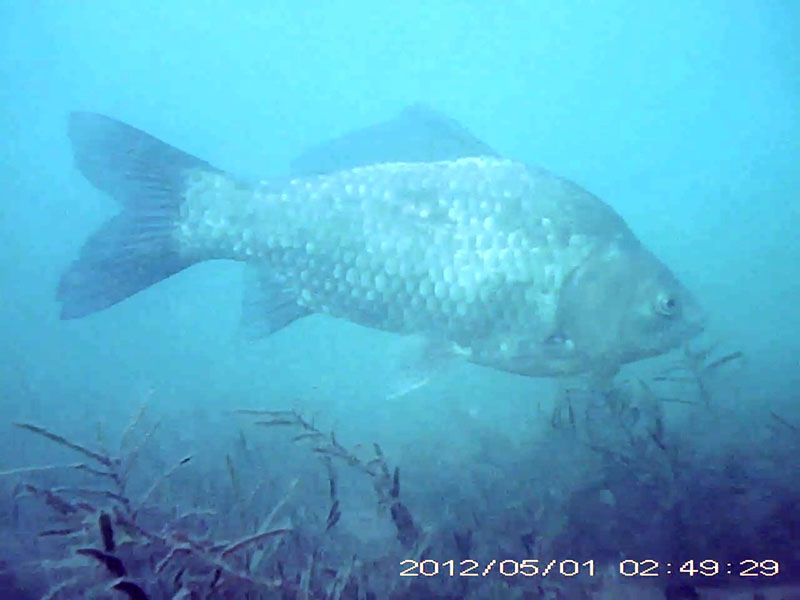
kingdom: Animalia
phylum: Chordata
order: Cypriniformes
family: Cyprinidae
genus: Carassius
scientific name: Carassius langsdorfii
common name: ギンブナ
